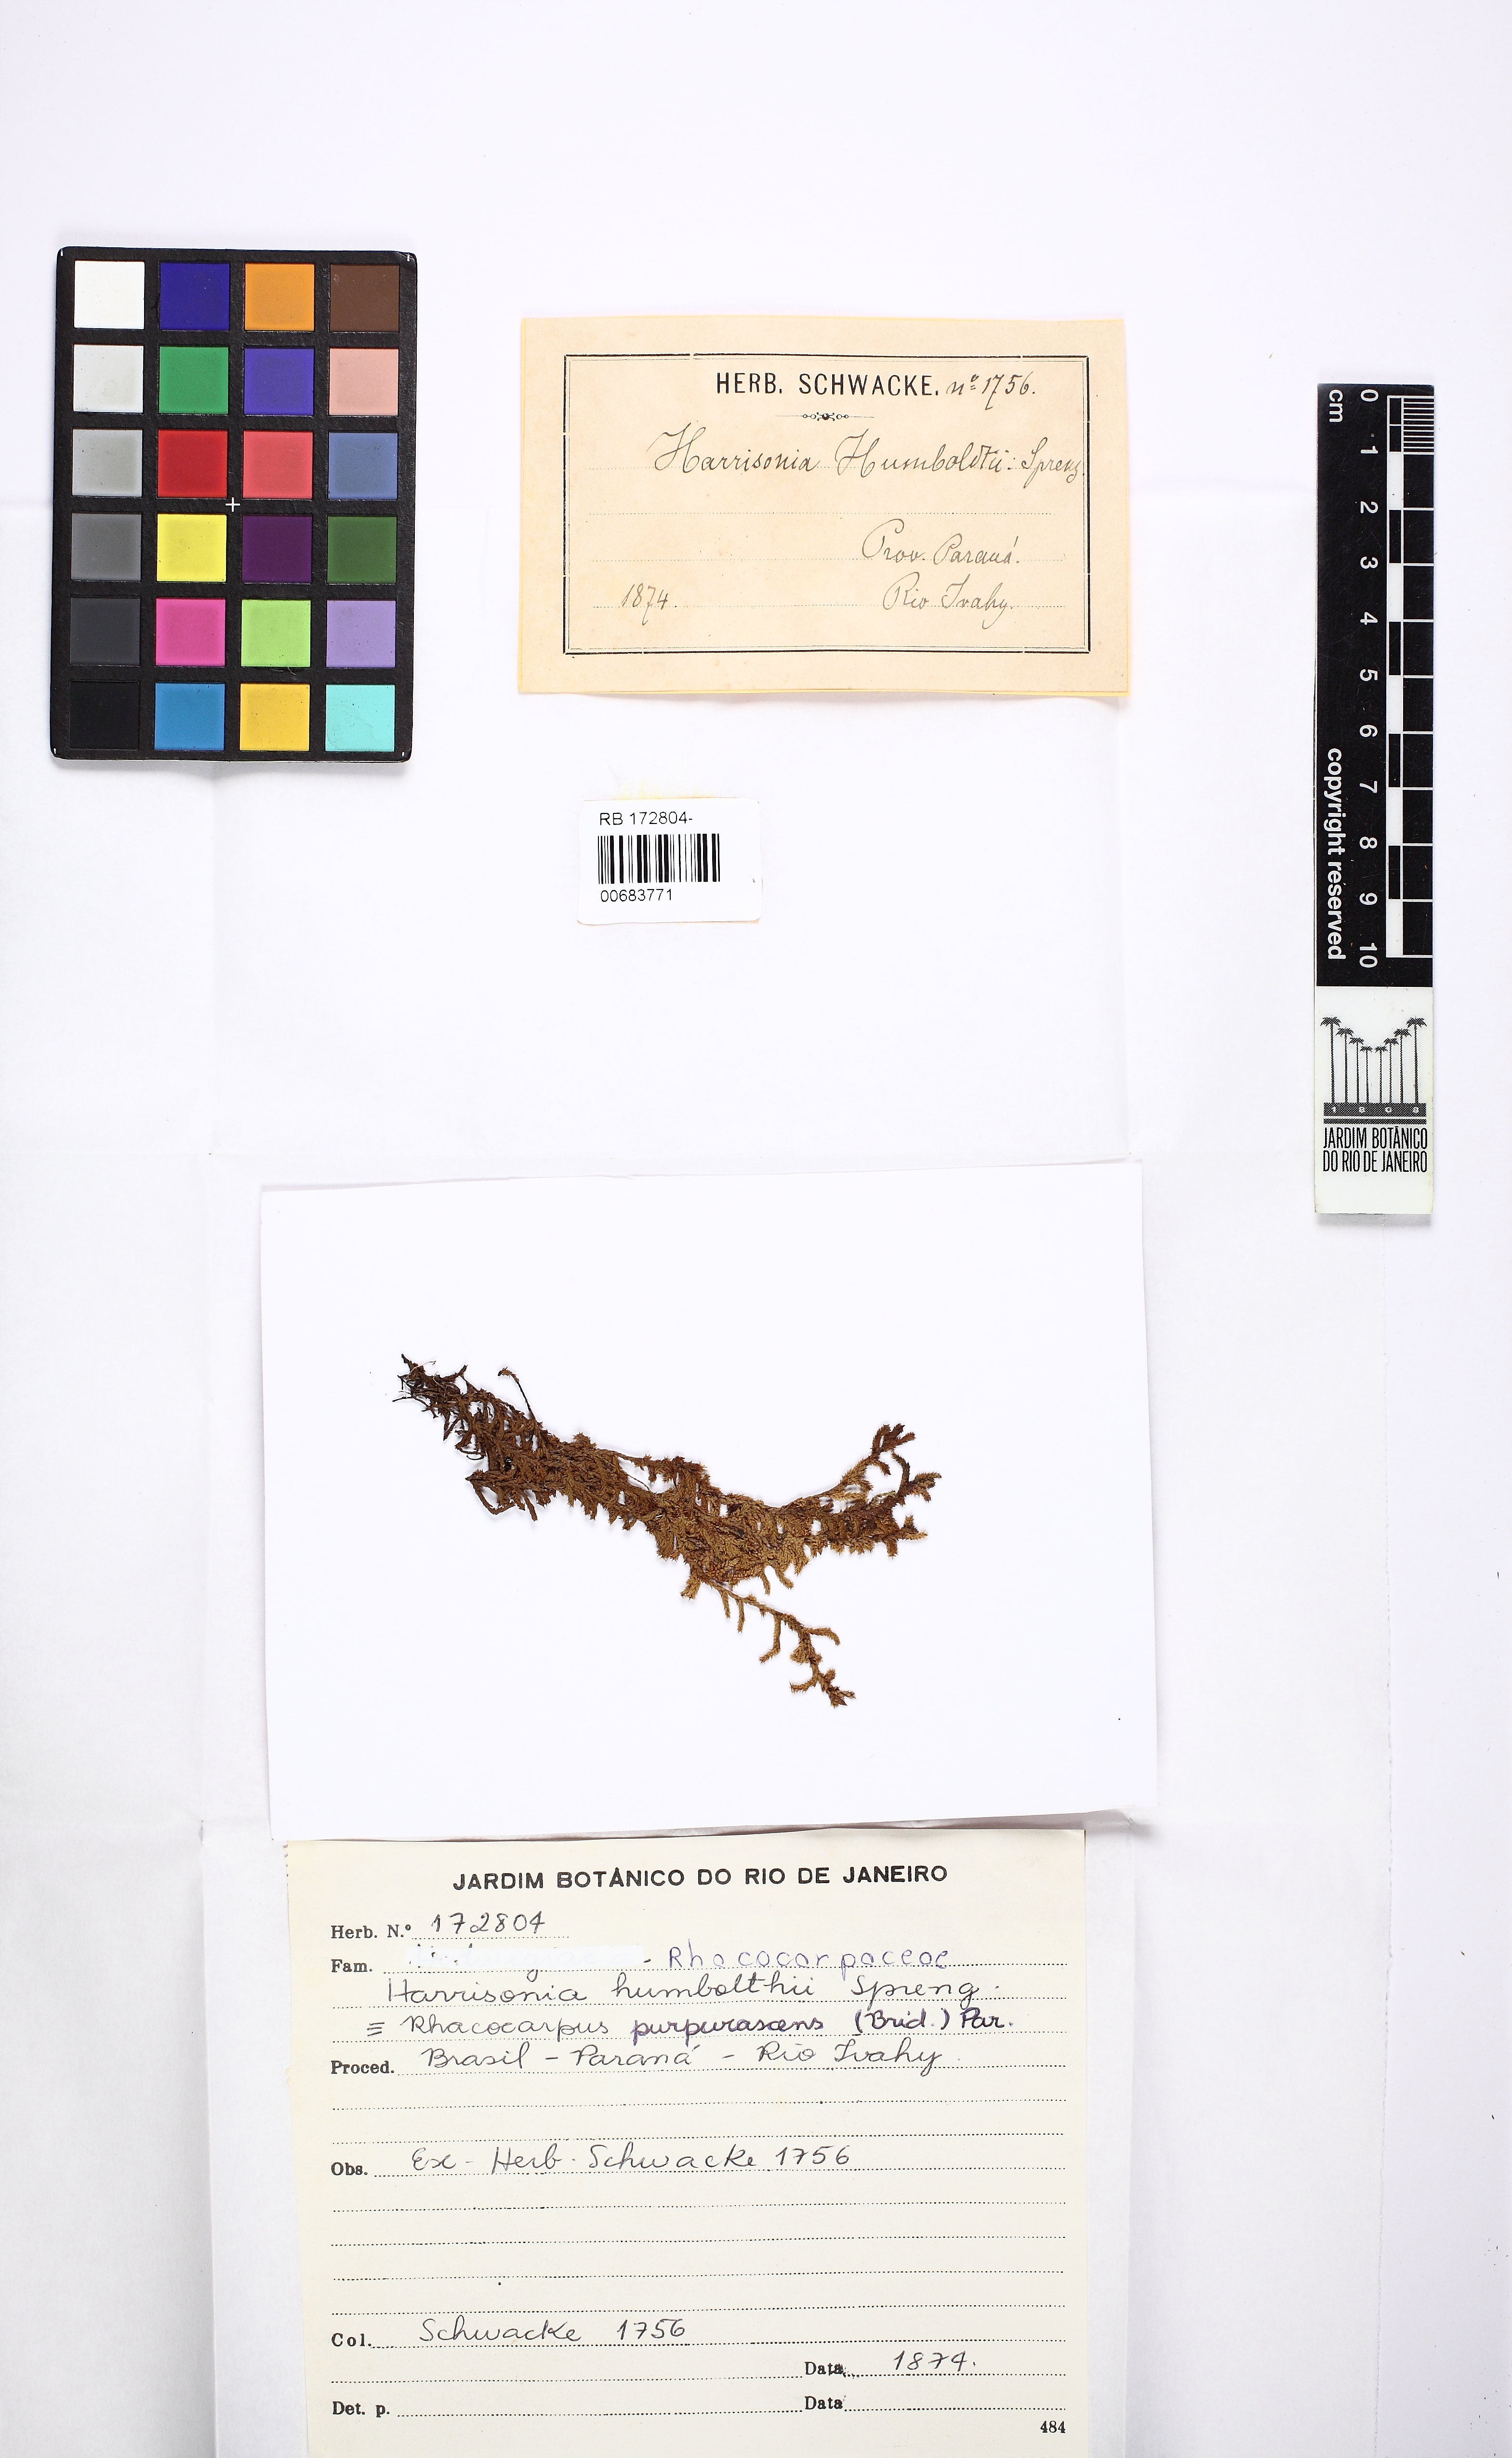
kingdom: Plantae
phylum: Bryophyta
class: Bryopsida
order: Hedwigiales
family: Hedwigiaceae
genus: Rhacocarpus
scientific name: Rhacocarpus purpurascens
